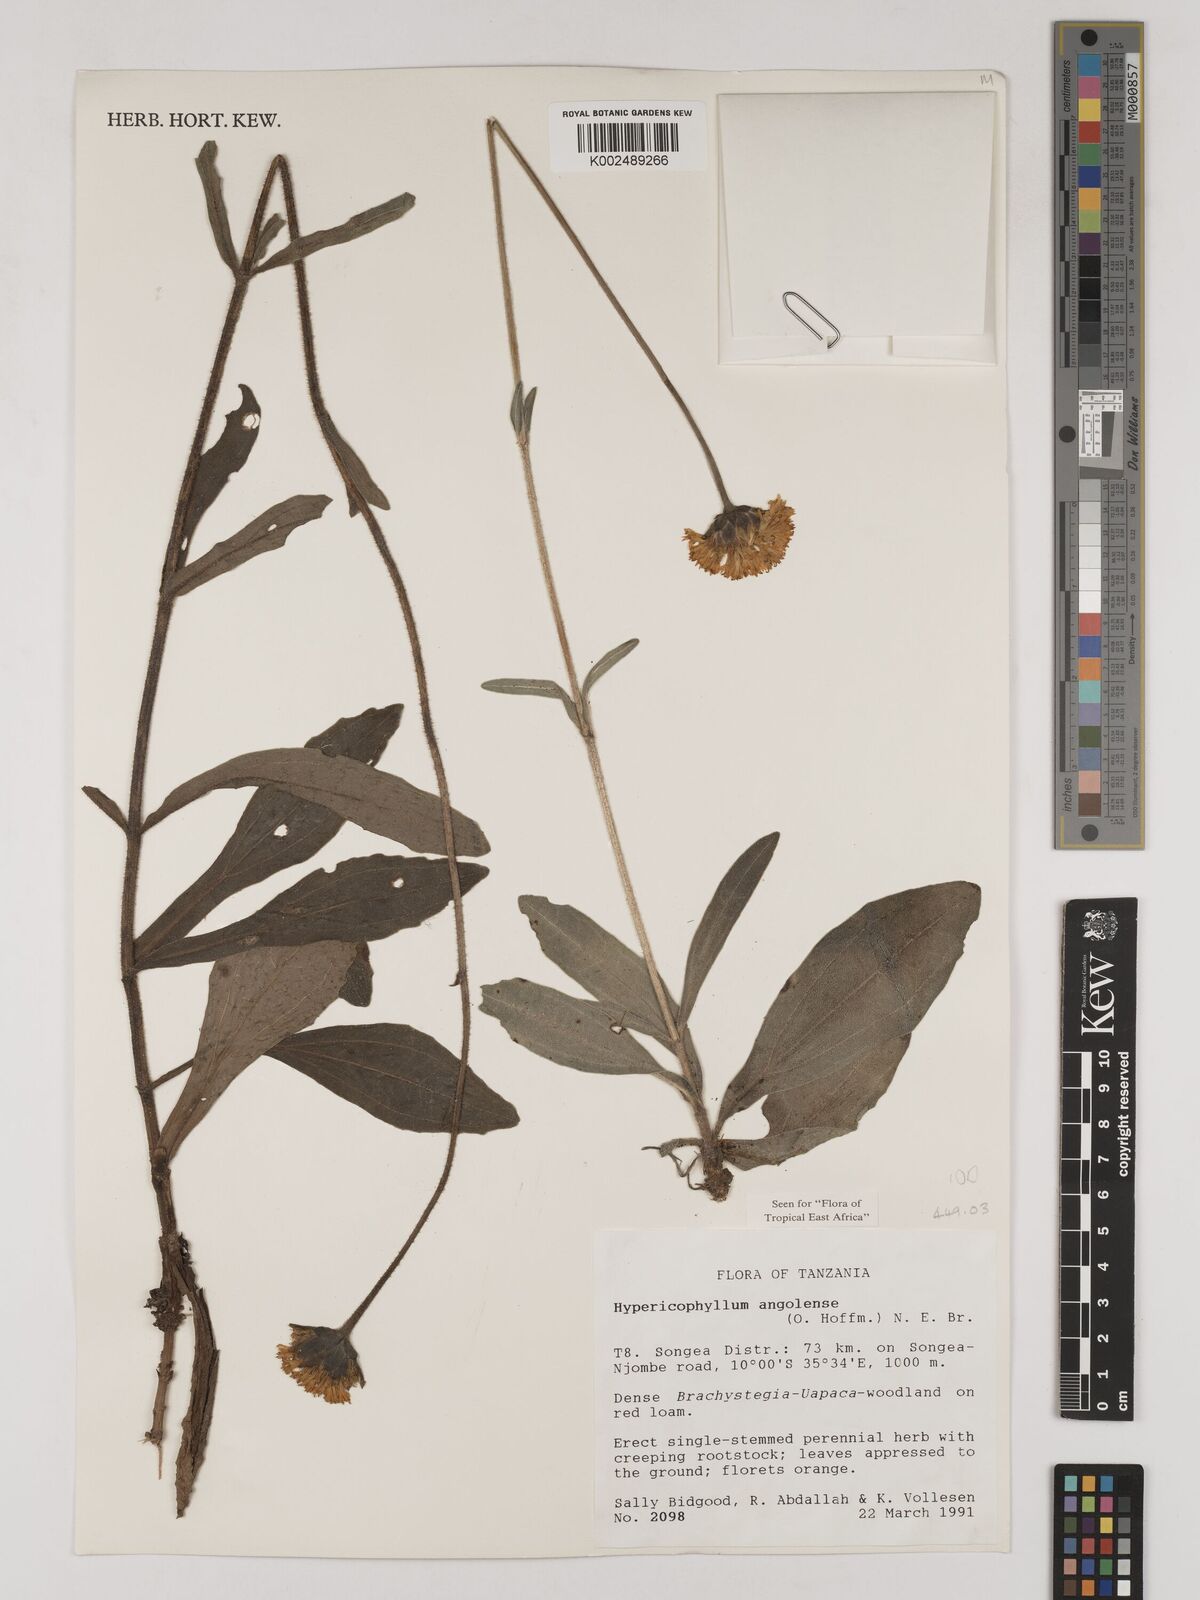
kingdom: Plantae
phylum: Tracheophyta
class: Magnoliopsida
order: Asterales
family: Asteraceae
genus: Hypericophyllum
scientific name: Hypericophyllum angolense
